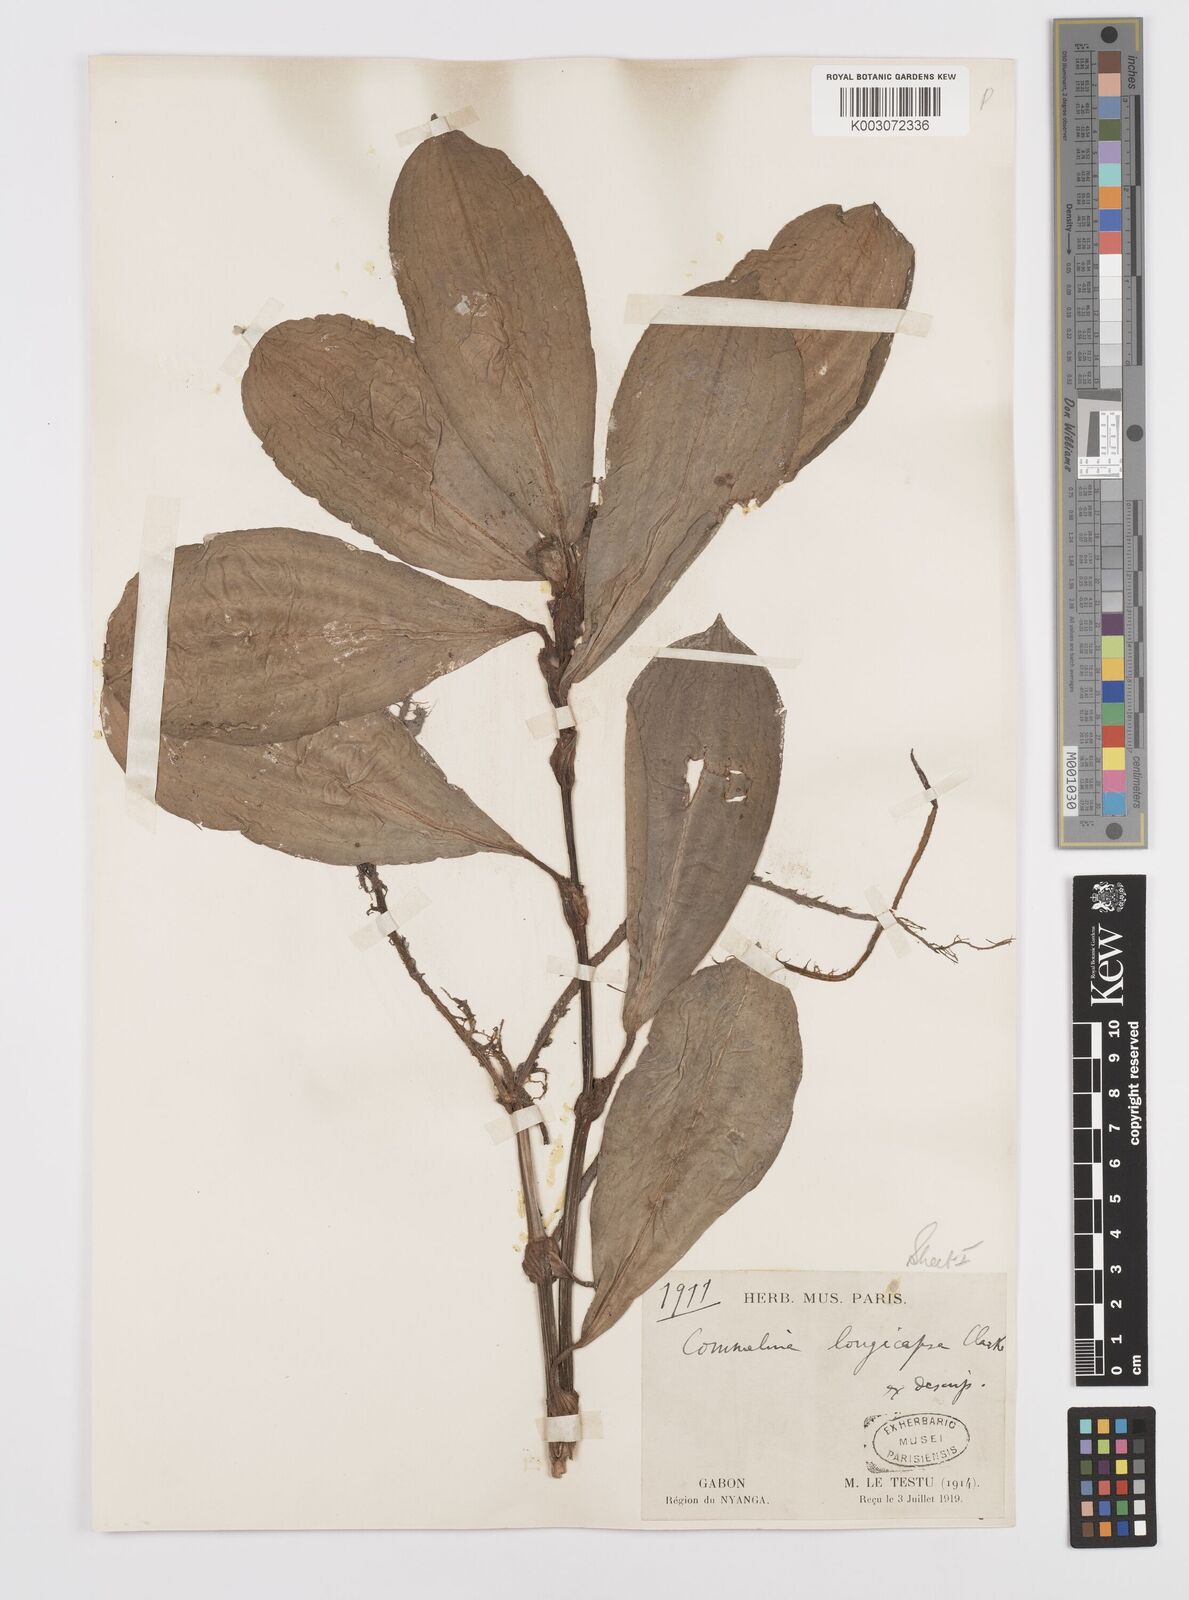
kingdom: Plantae
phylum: Tracheophyta
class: Liliopsida
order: Commelinales
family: Commelinaceae
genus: Commelina
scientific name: Commelina longicapsa
